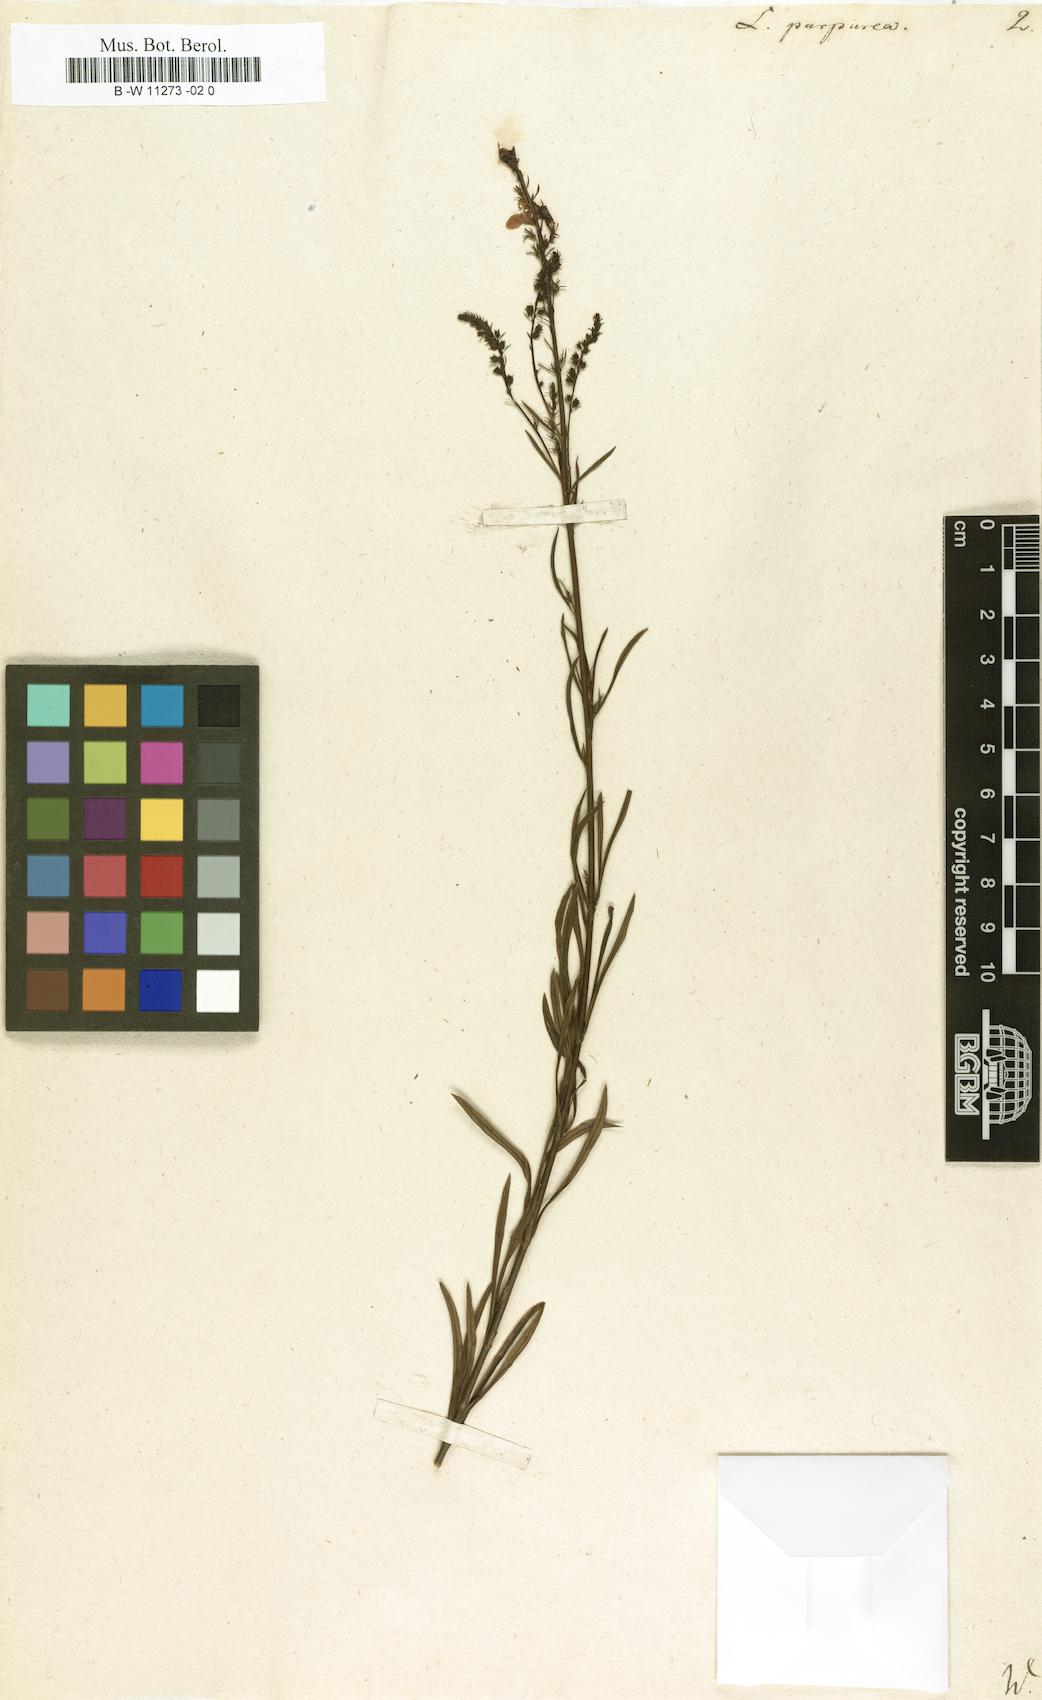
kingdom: Plantae
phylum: Tracheophyta
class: Magnoliopsida
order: Lamiales
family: Plantaginaceae
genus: Linaria
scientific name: Linaria purpurea
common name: Purple toadflax
